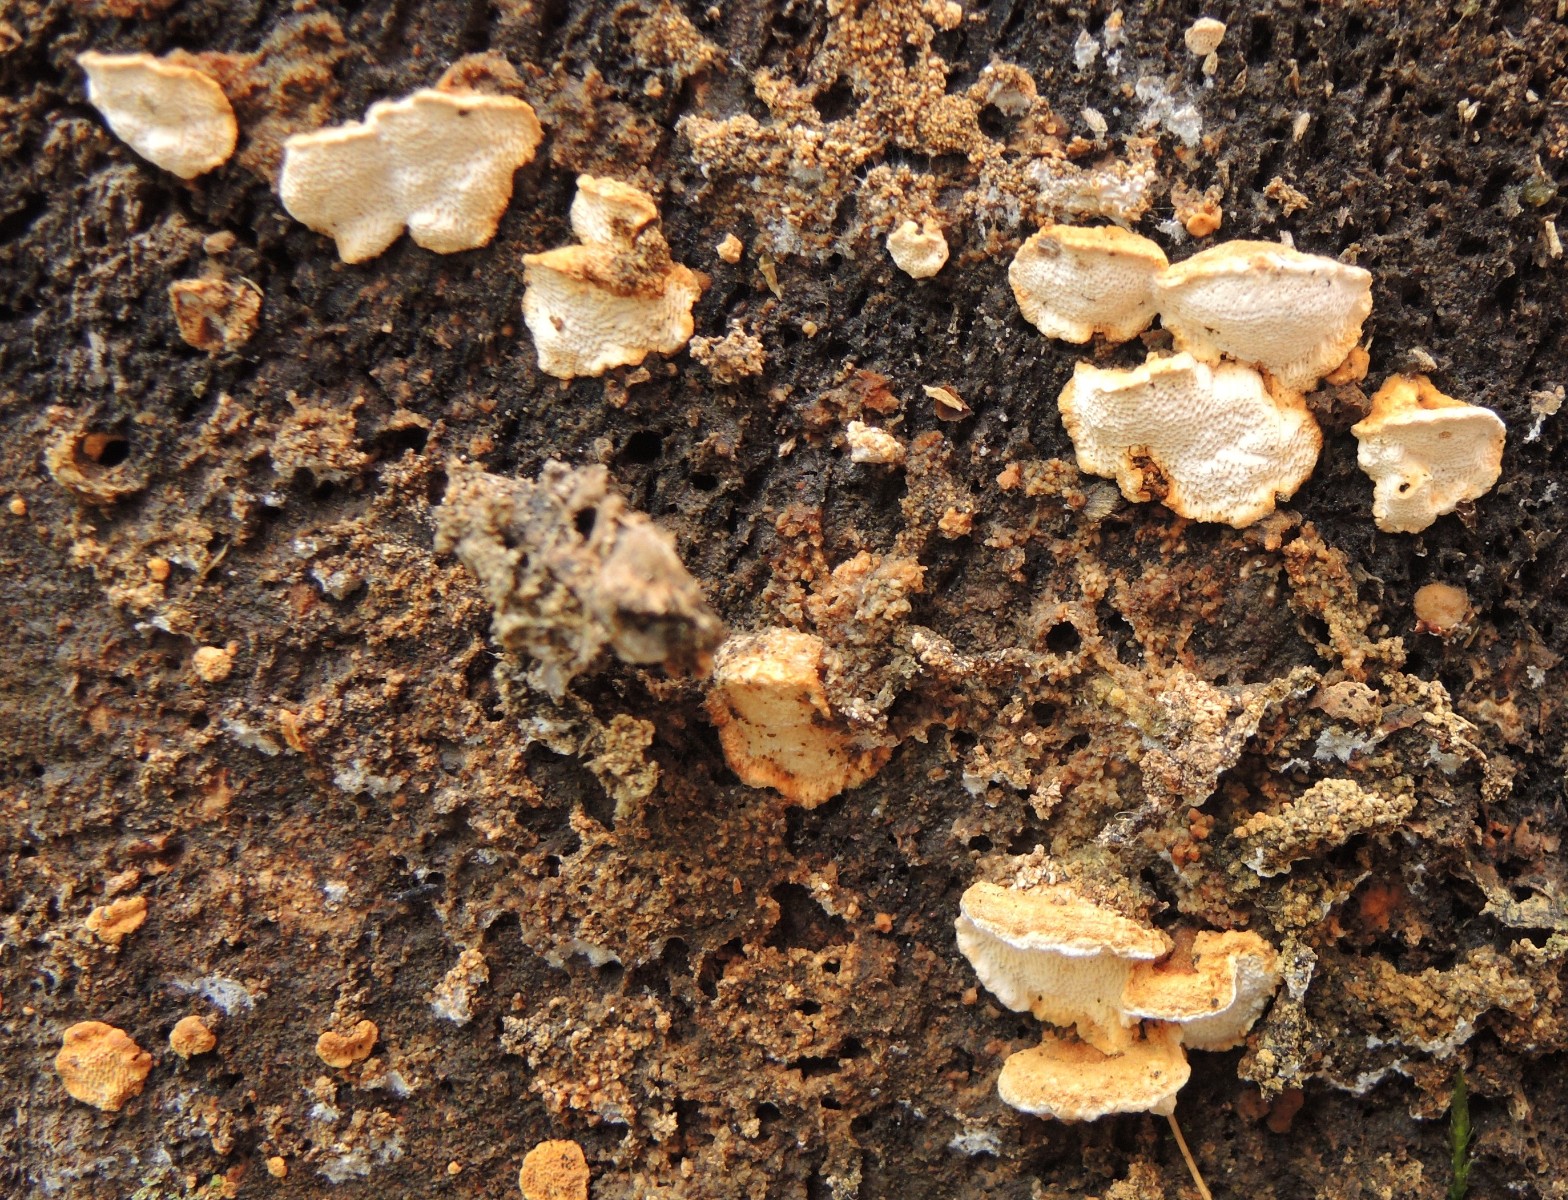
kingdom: Fungi
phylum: Basidiomycota
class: Agaricomycetes
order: Polyporales
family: Fomitopsidaceae
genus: Neoantrodia
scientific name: Neoantrodia serialis
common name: række-sejporesvamp
